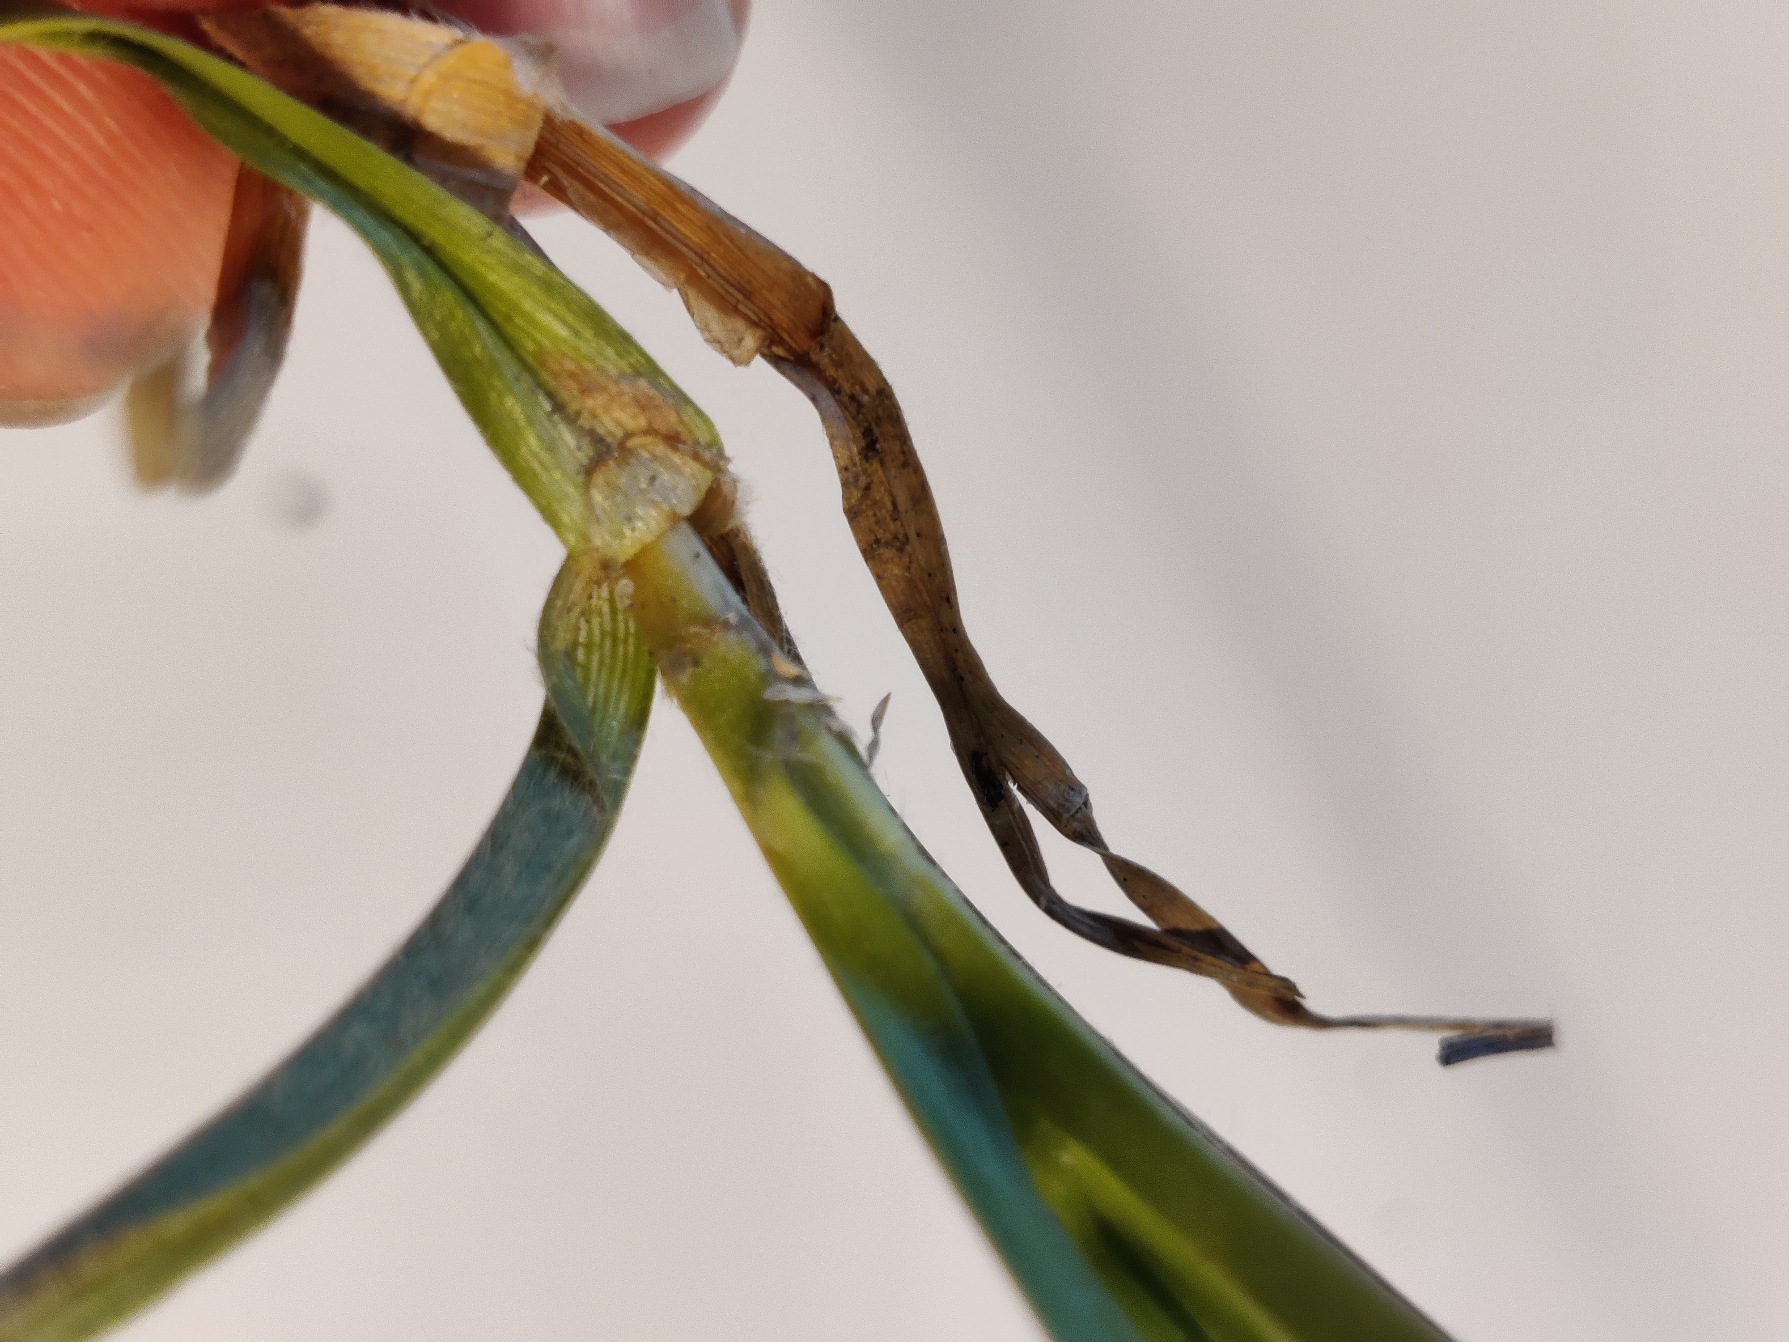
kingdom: Plantae
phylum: Tracheophyta
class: Liliopsida
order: Poales
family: Cyperaceae
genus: Carex
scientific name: Carex hirta
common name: Håret star
